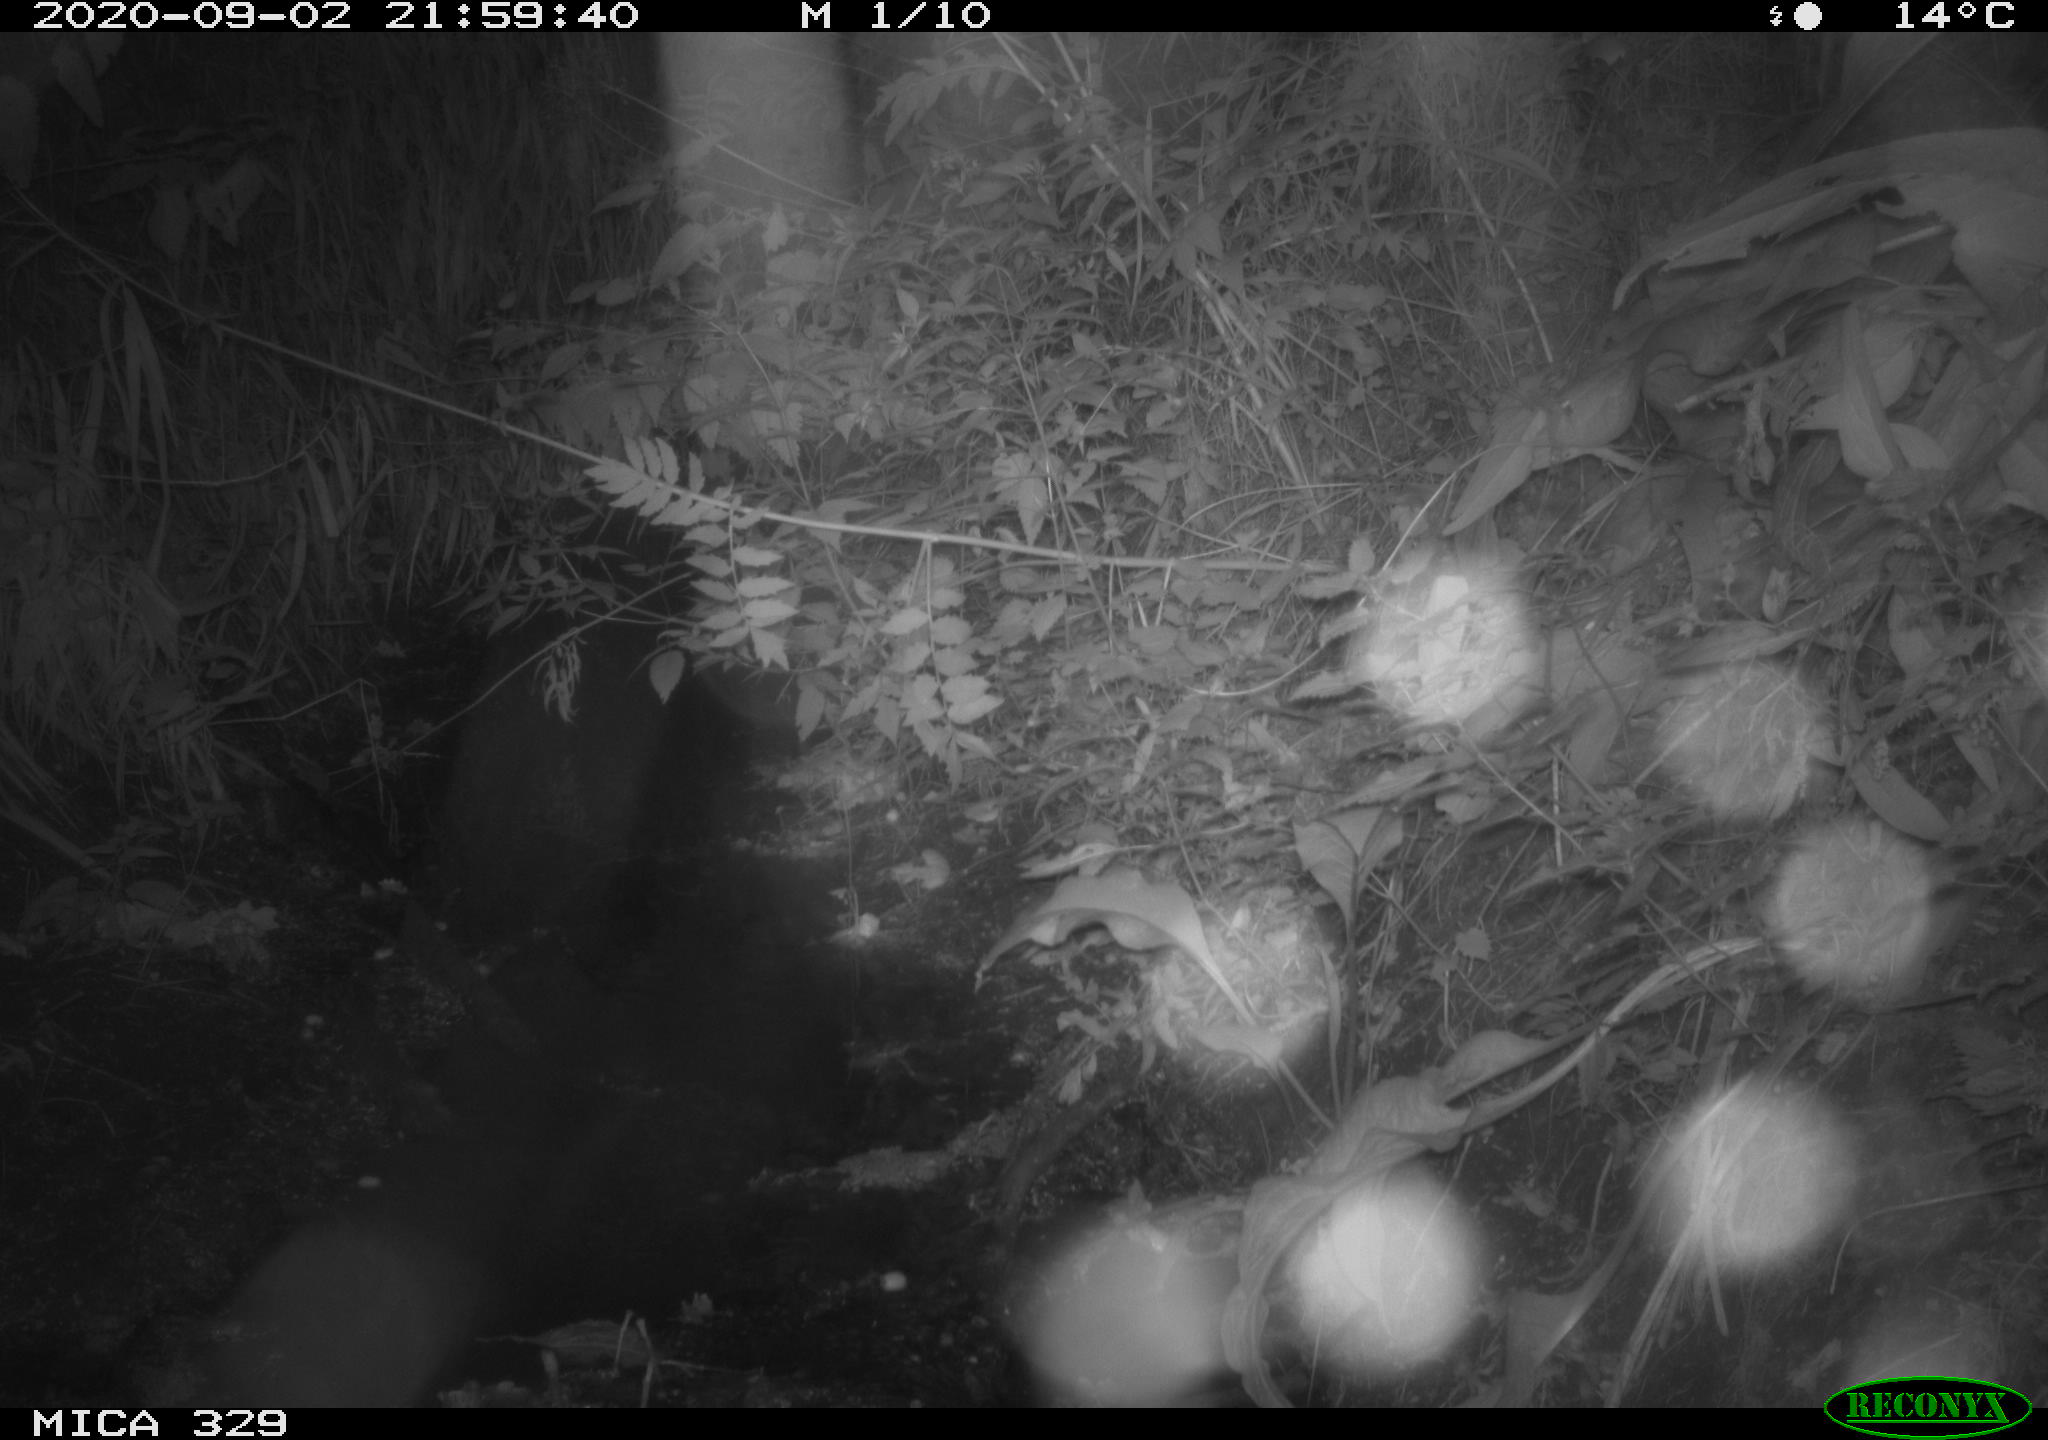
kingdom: Animalia
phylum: Chordata
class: Mammalia
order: Rodentia
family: Muridae
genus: Rattus
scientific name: Rattus norvegicus
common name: Brown rat
